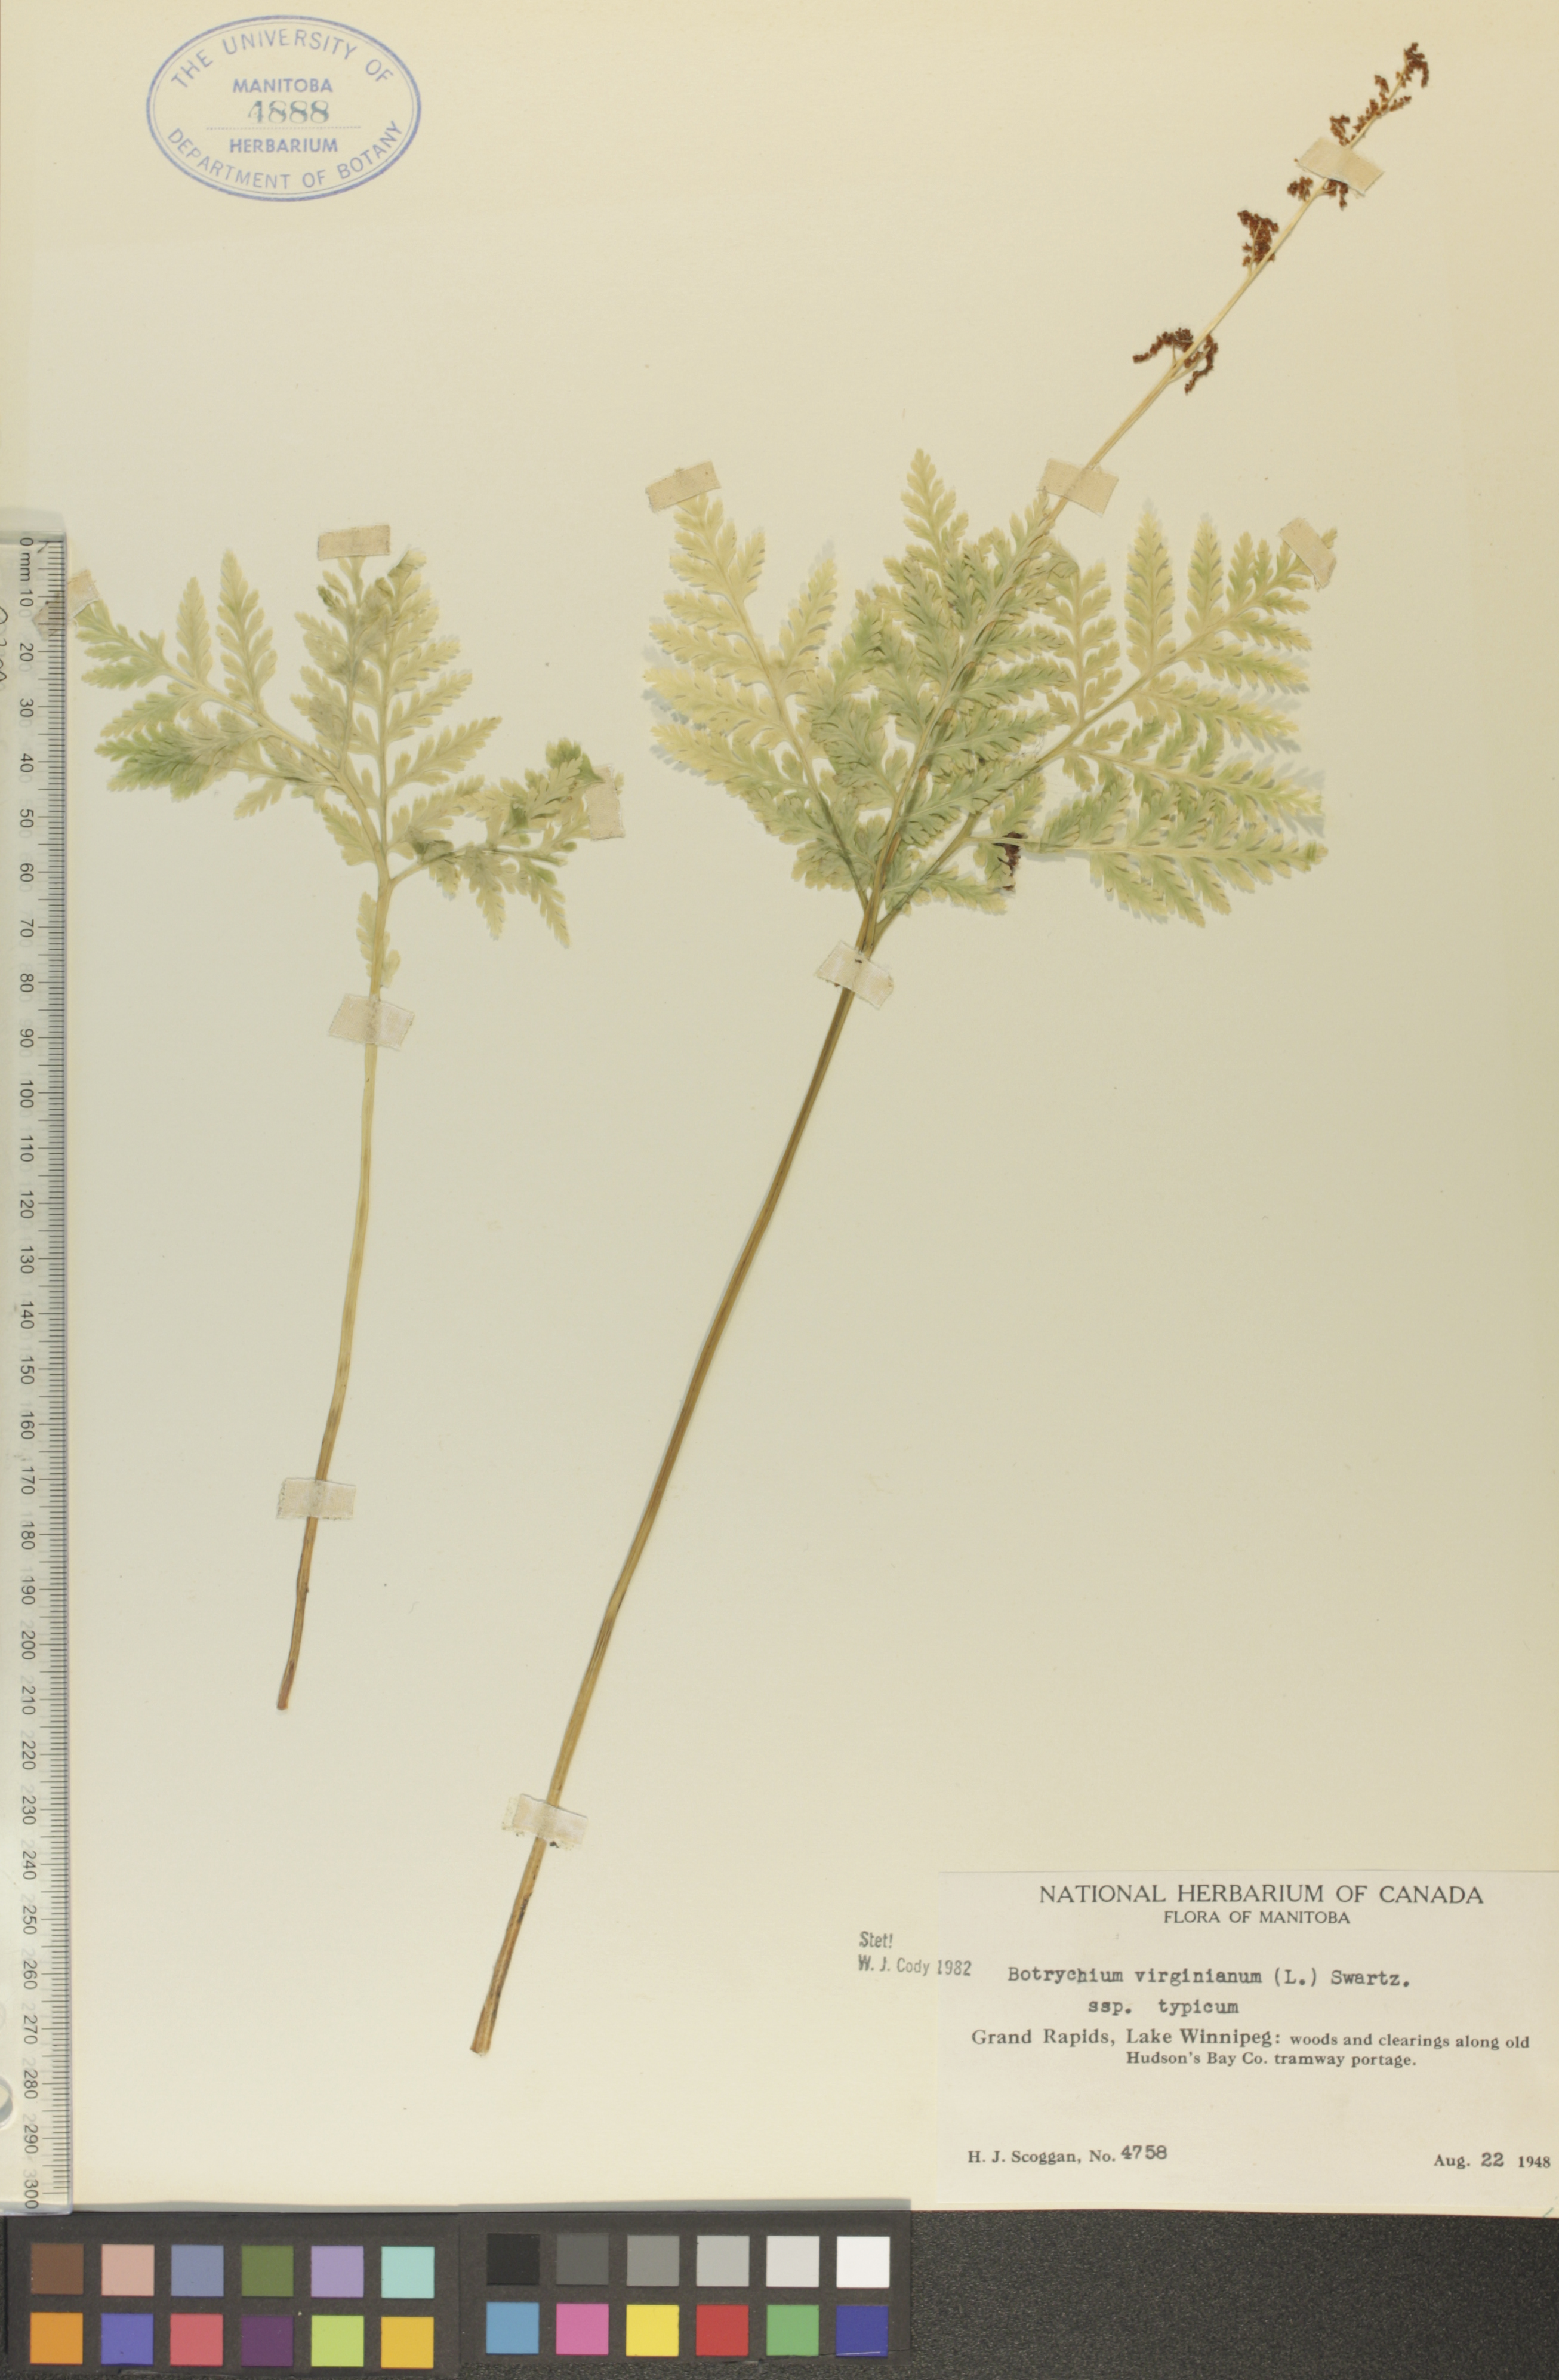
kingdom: Plantae
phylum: Tracheophyta
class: Polypodiopsida
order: Ophioglossales
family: Ophioglossaceae
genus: Botrypus
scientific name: Botrypus virginianus
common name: Common grapefern
